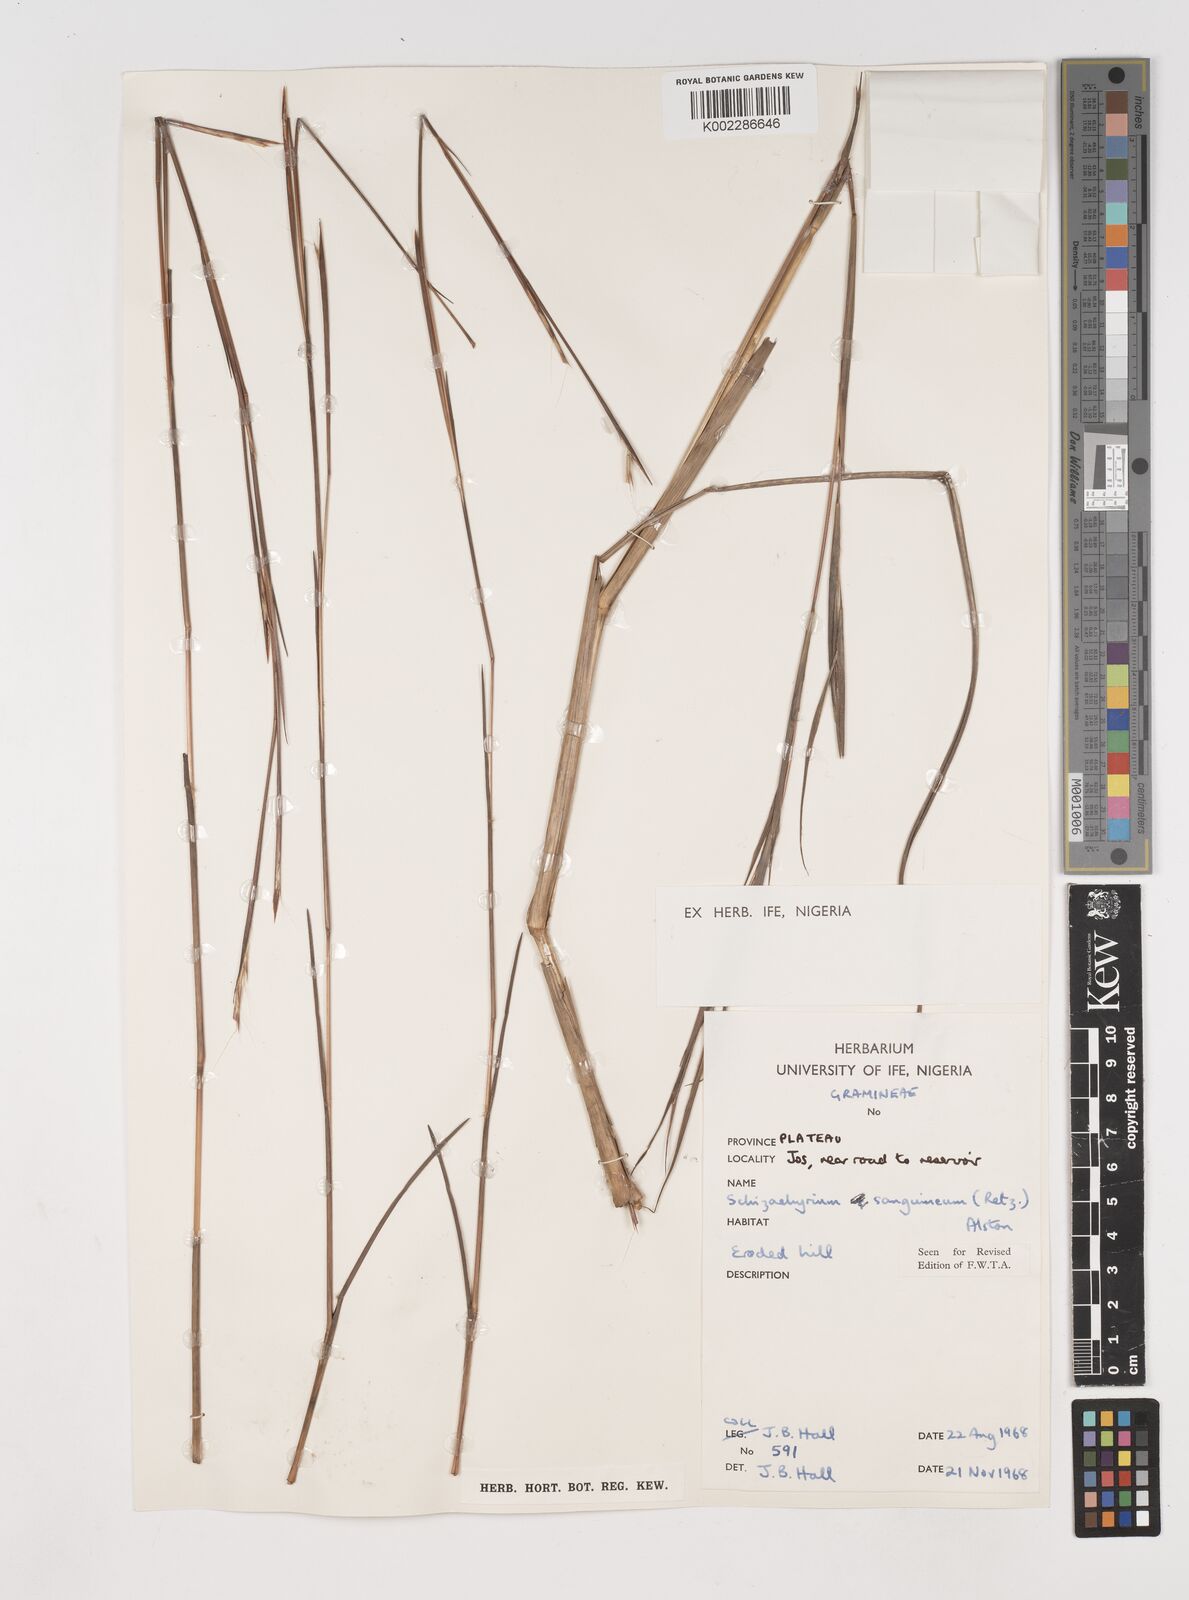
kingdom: Plantae
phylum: Tracheophyta
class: Liliopsida
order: Poales
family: Poaceae
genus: Schizachyrium
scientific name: Schizachyrium sanguineum
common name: Crimson bluestem
